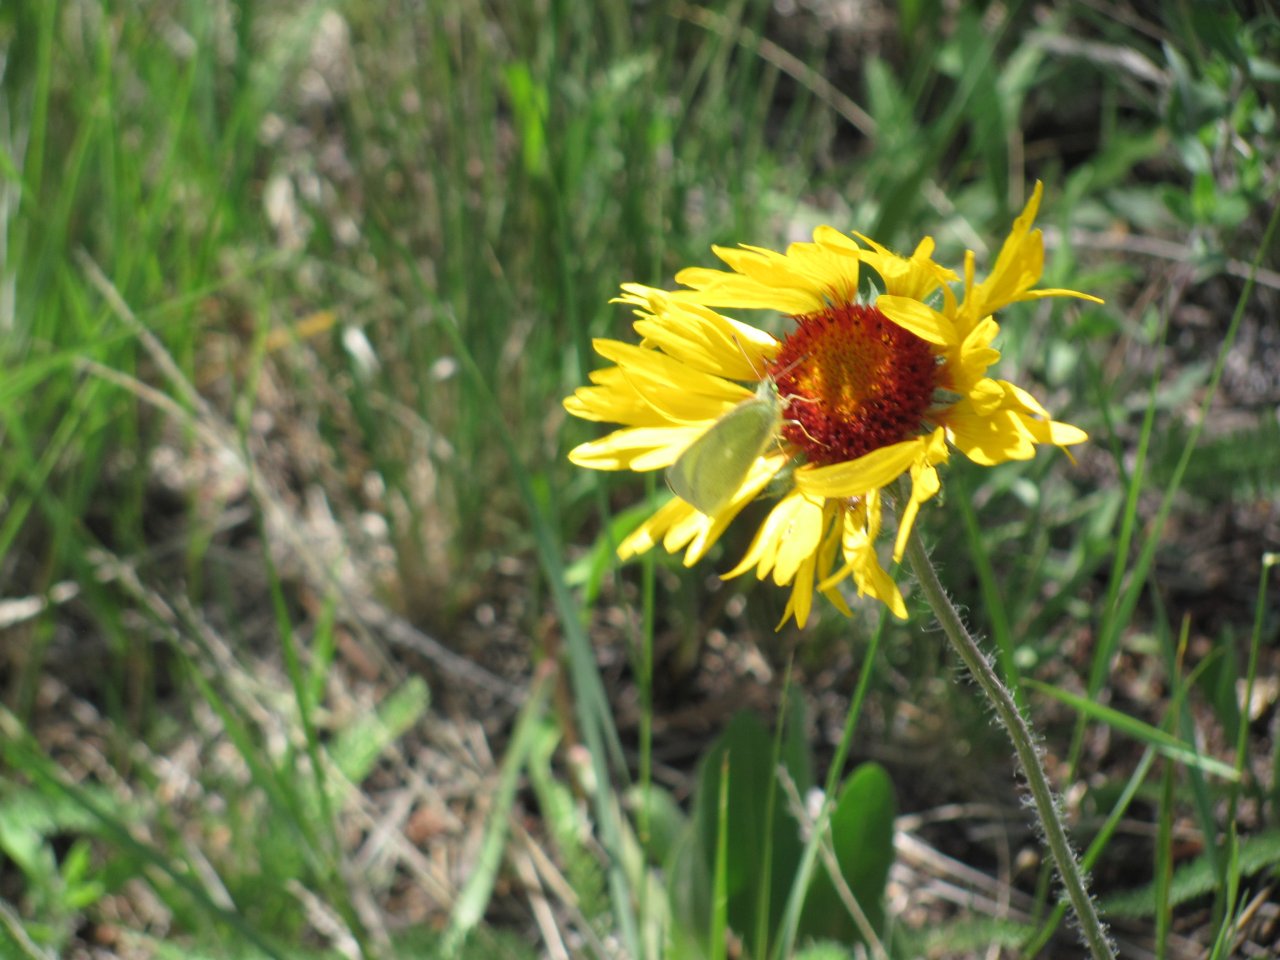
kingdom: Animalia
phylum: Arthropoda
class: Insecta
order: Lepidoptera
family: Lycaenidae
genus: Callophrys
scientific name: Callophrys affinis
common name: Western Green Hairstreak
